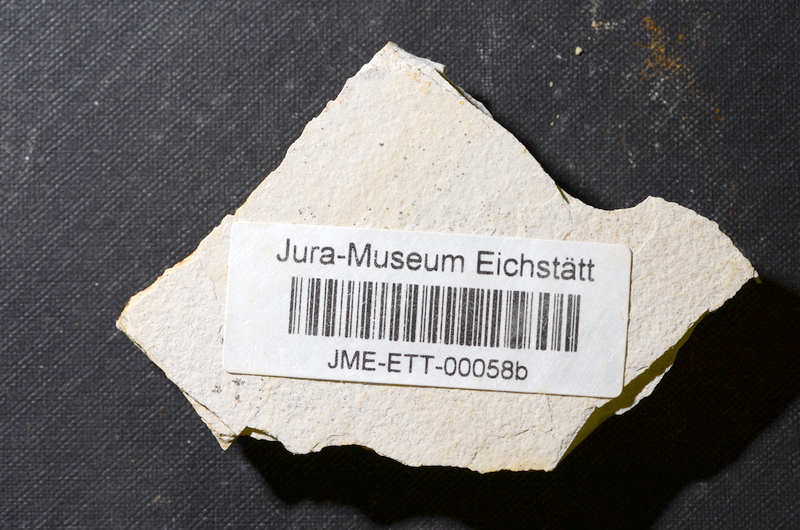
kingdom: Animalia
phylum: Chordata
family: Ascalaboidae
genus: Ebertichthys
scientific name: Ebertichthys ettlingensis
